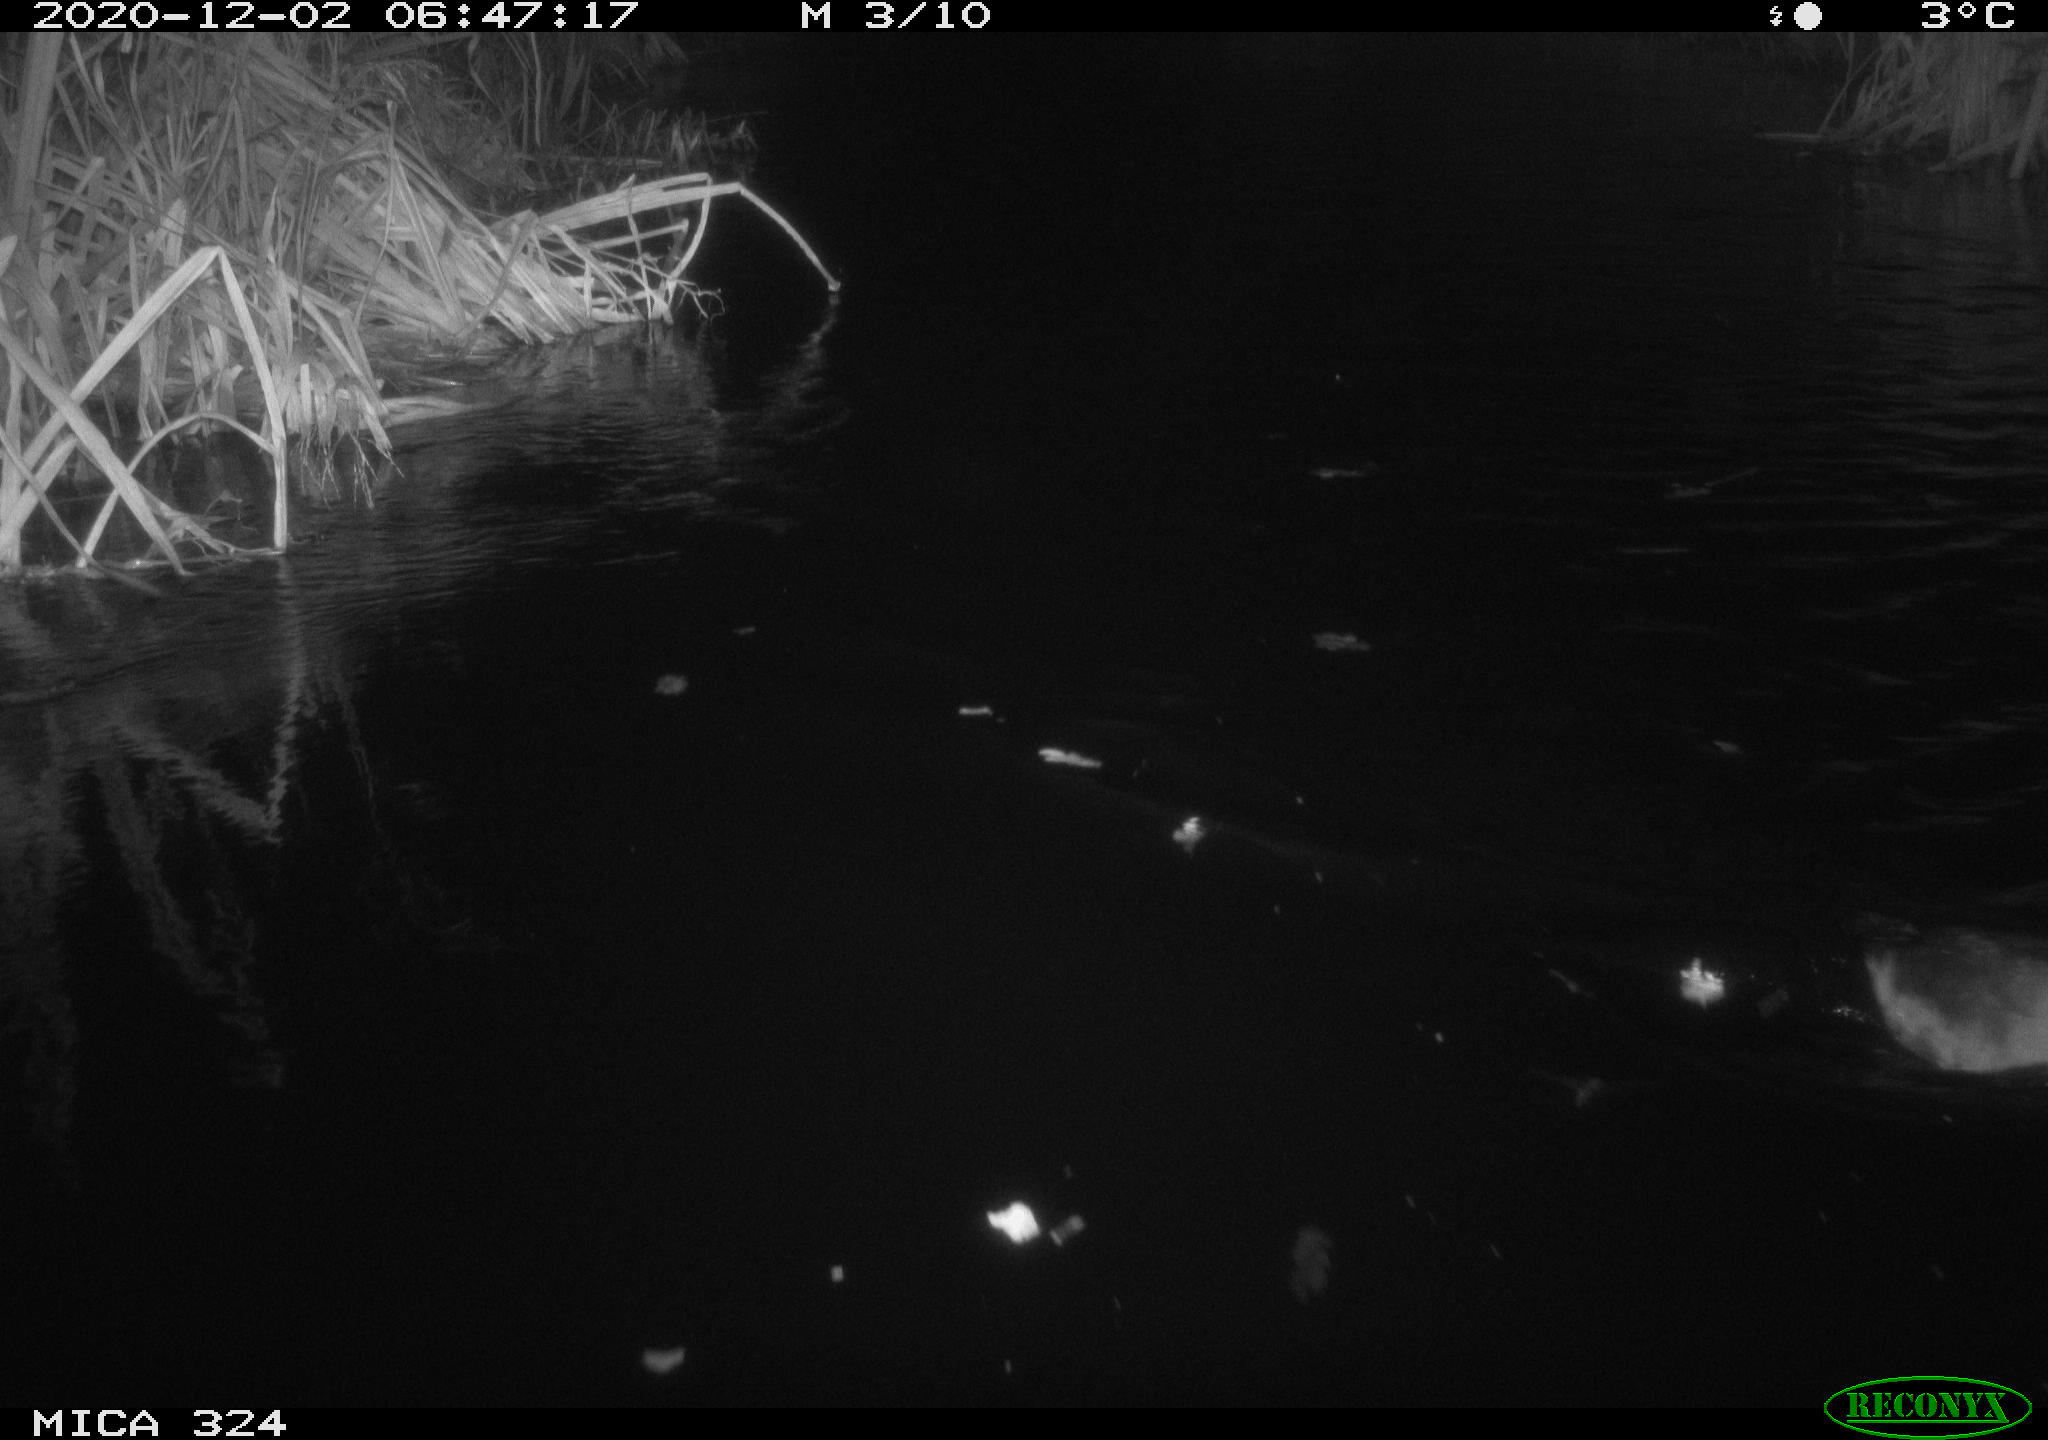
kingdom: Animalia
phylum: Chordata
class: Aves
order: Gruiformes
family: Rallidae
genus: Fulica
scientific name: Fulica atra
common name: Eurasian coot
